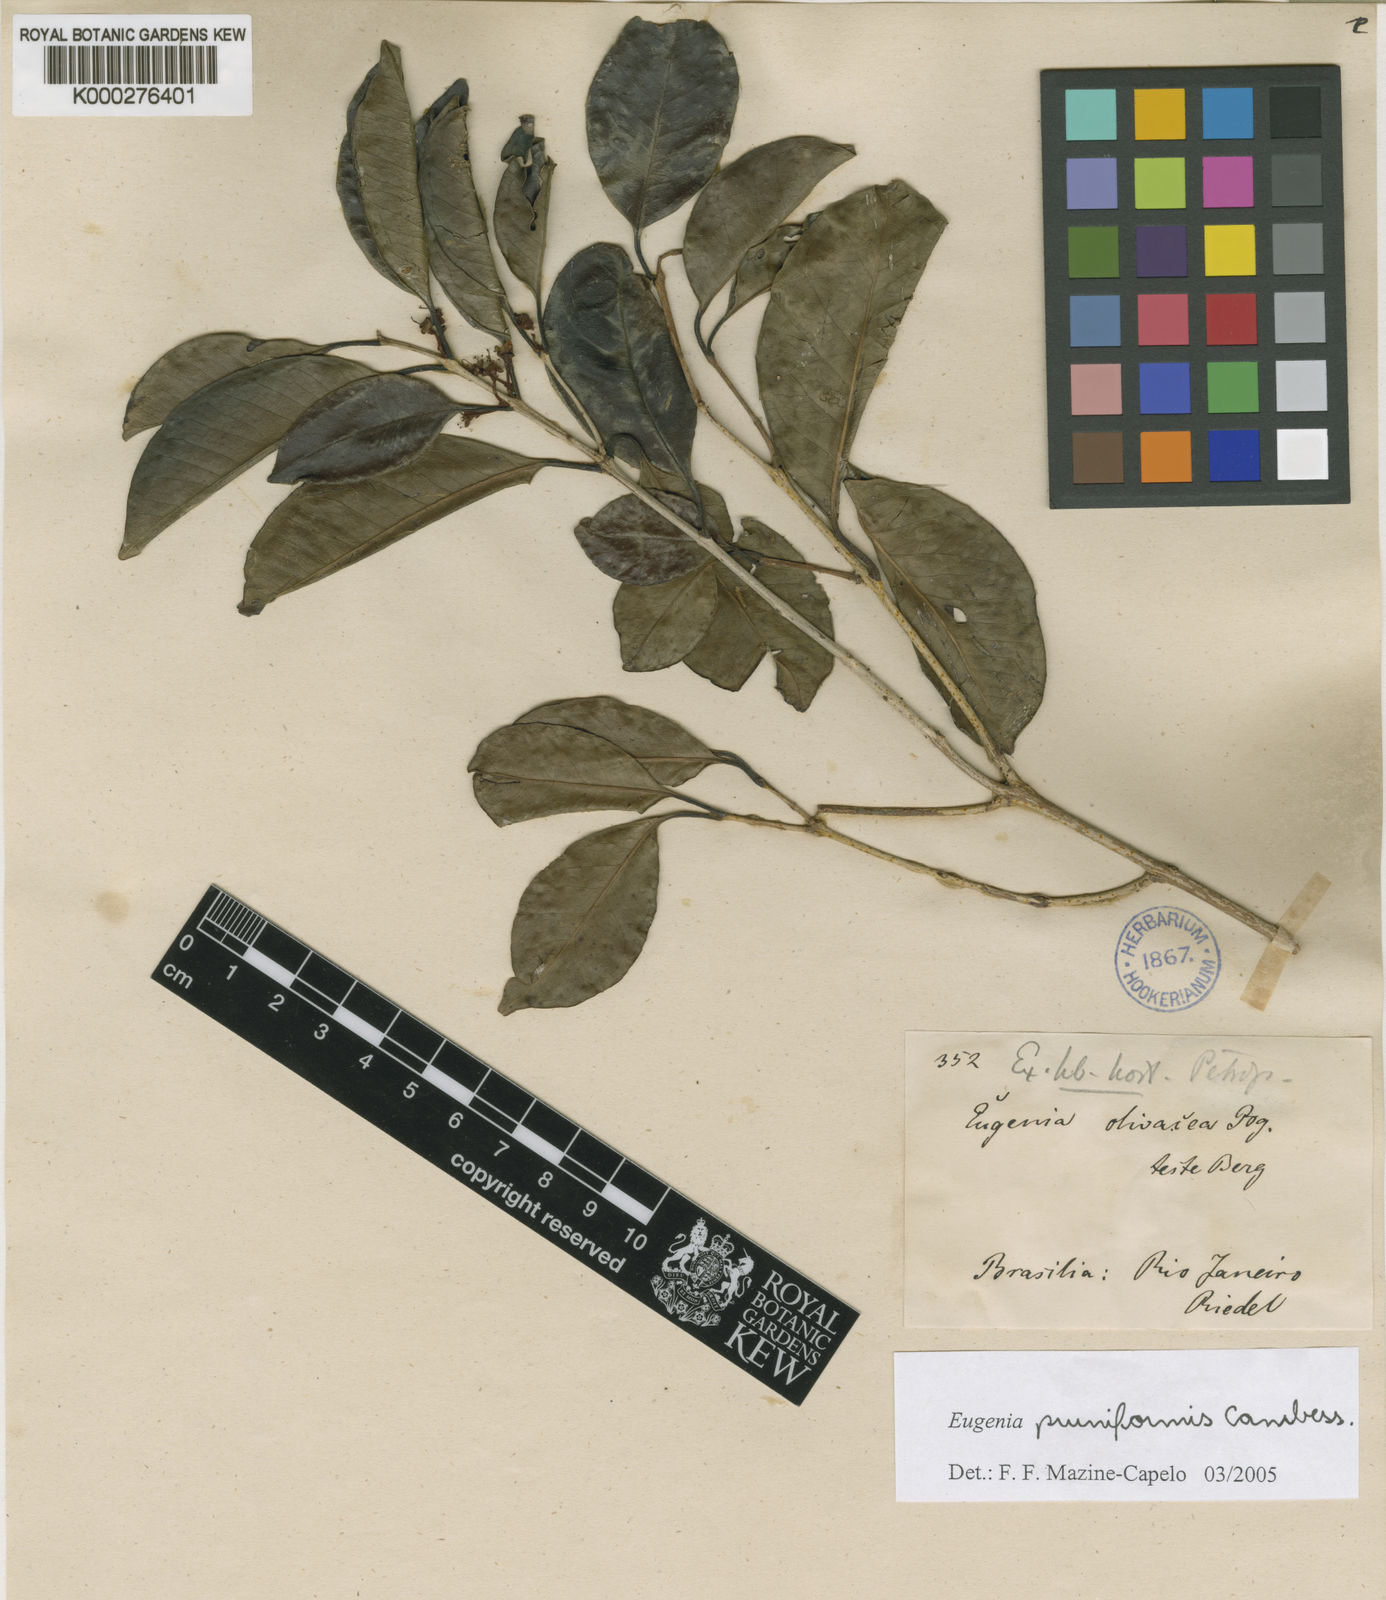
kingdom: Plantae
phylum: Tracheophyta
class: Magnoliopsida
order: Myrtales
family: Myrtaceae
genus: Eugenia
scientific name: Eugenia pruniformis
